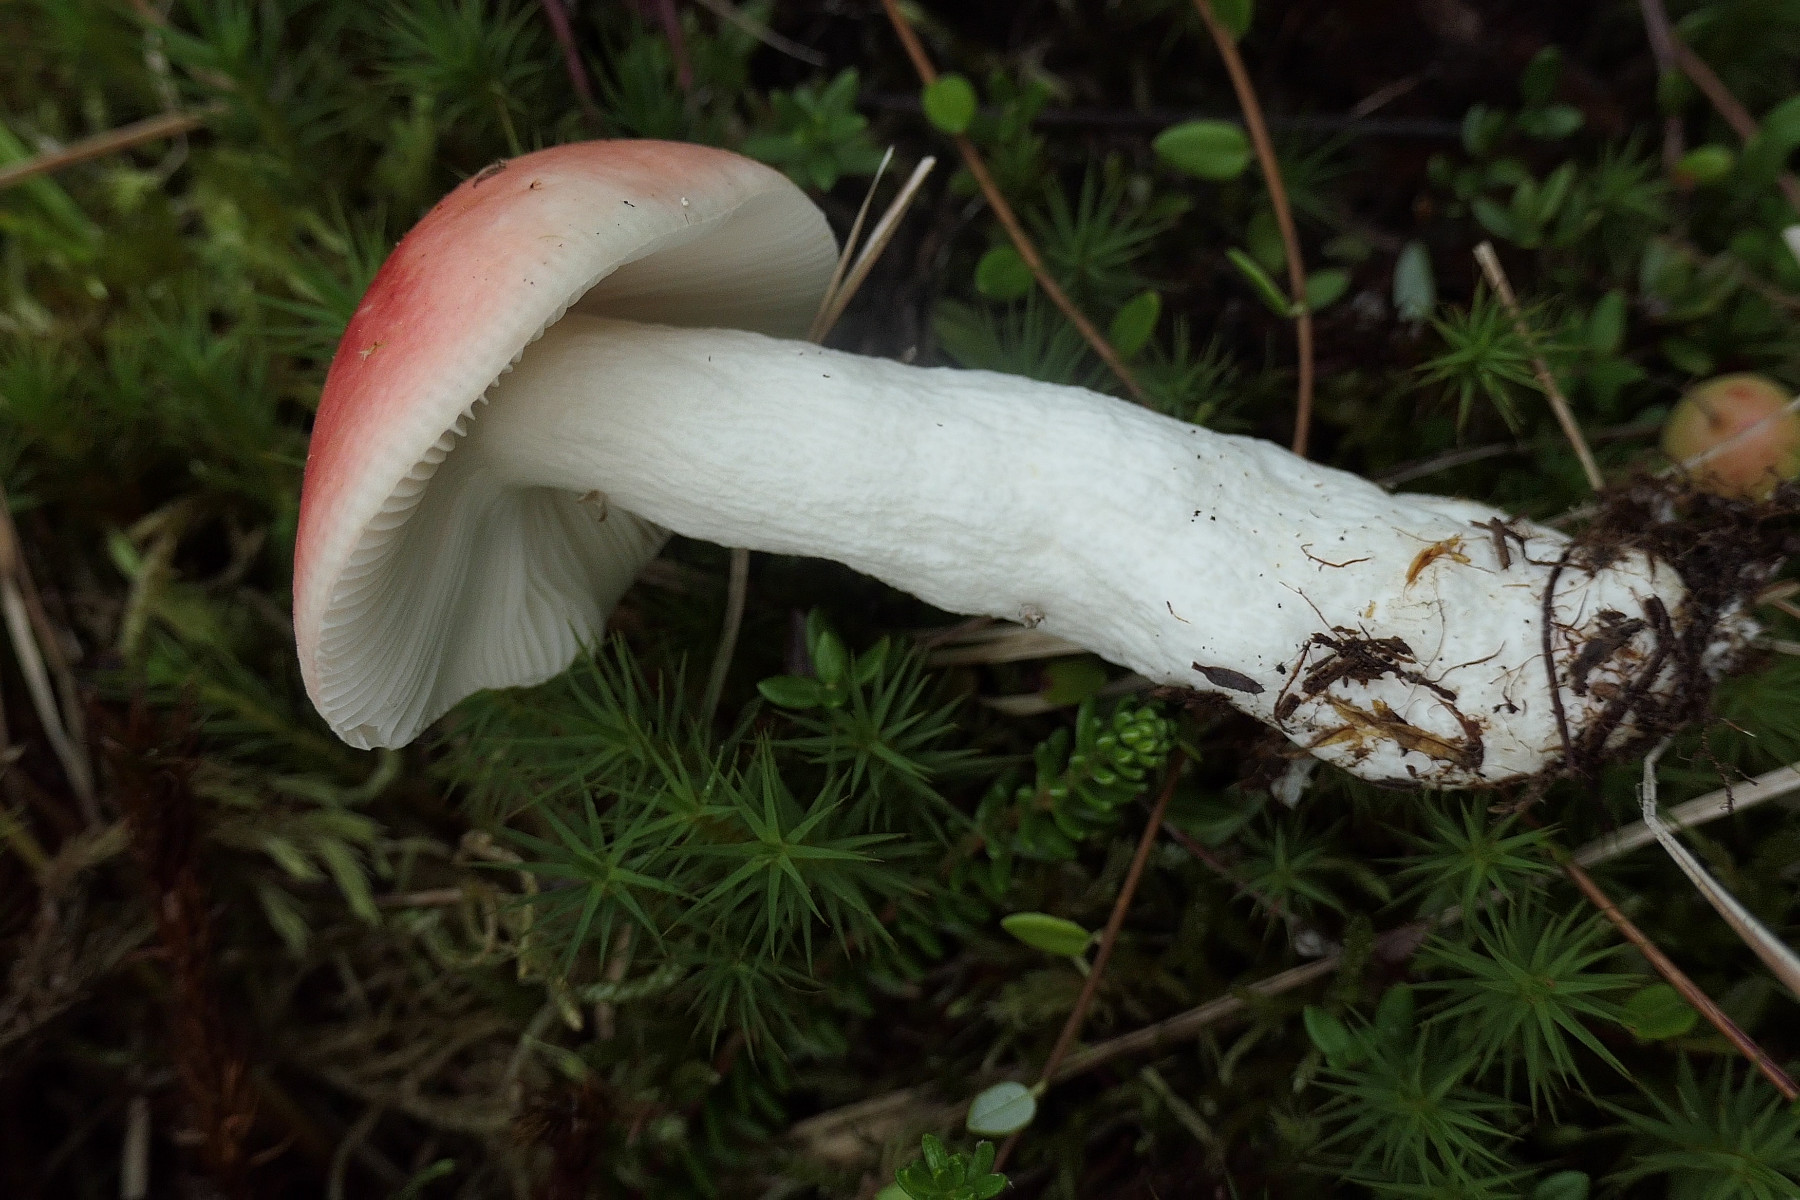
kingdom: Fungi
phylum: Basidiomycota
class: Agaricomycetes
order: Russulales
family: Russulaceae
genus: Russula
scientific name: Russula emetica
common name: stor gift-skørhat
